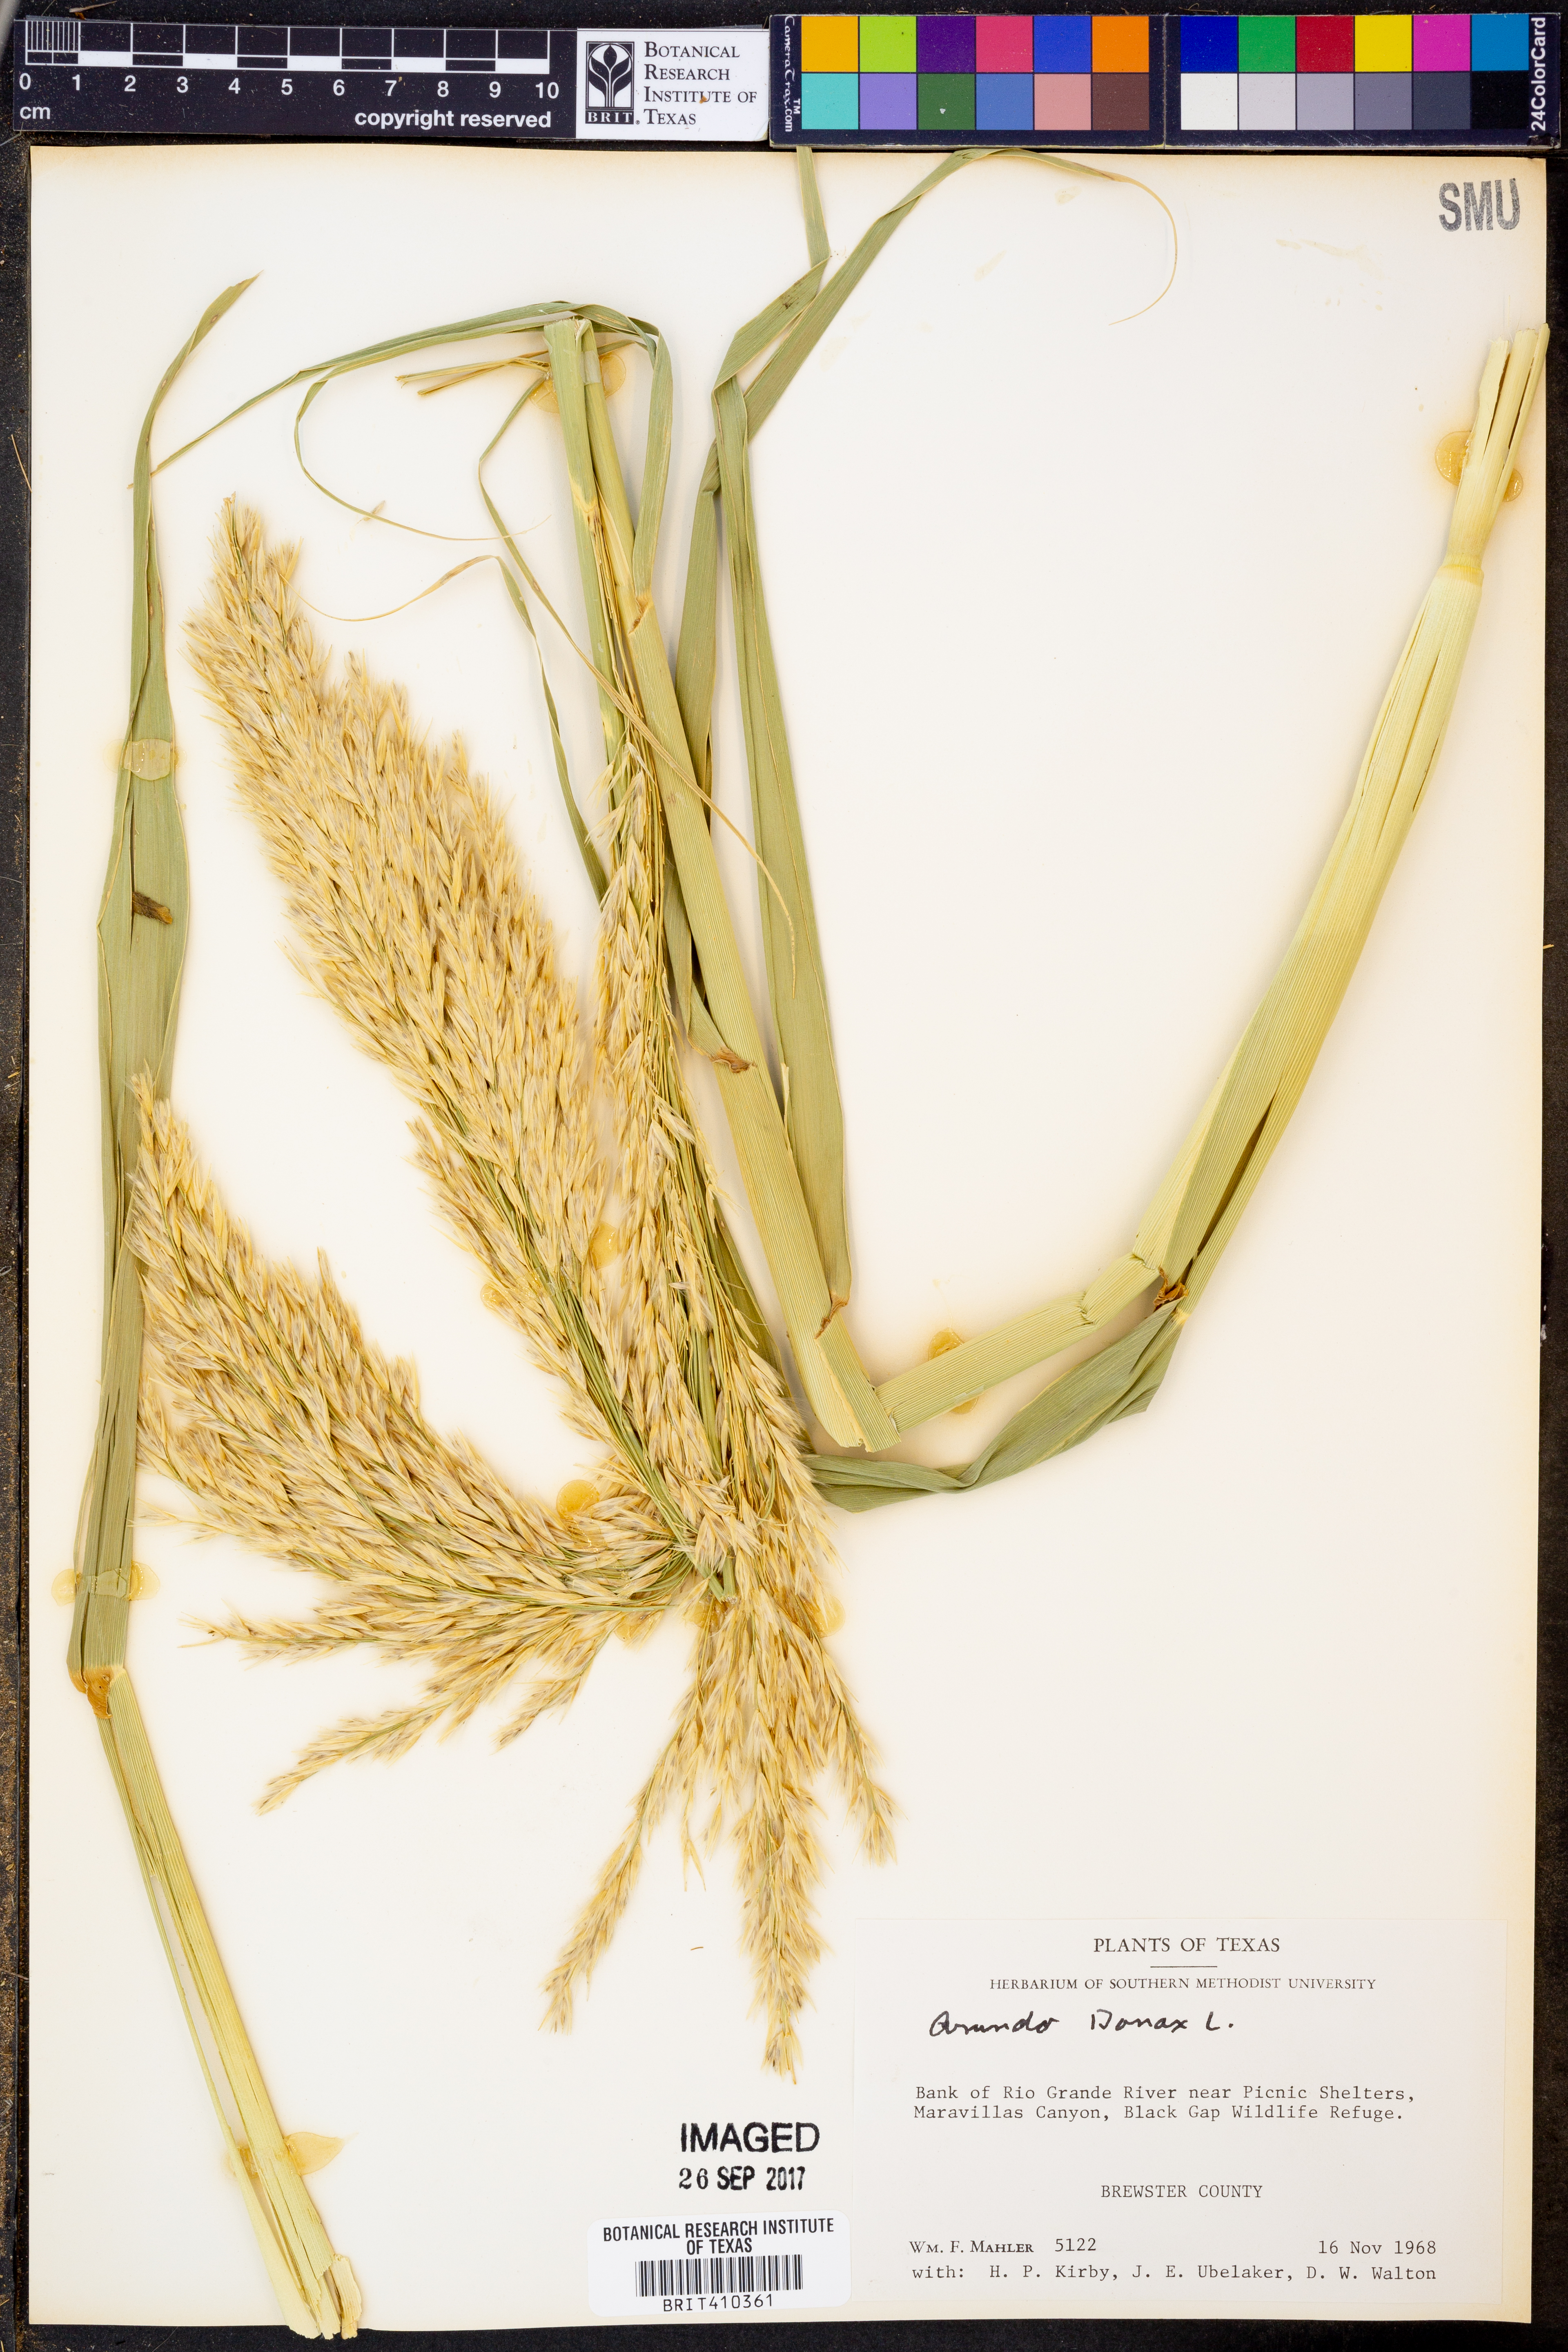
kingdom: Plantae
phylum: Tracheophyta
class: Liliopsida
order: Poales
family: Poaceae
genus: Arundo
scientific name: Arundo donax
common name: Giant reed
